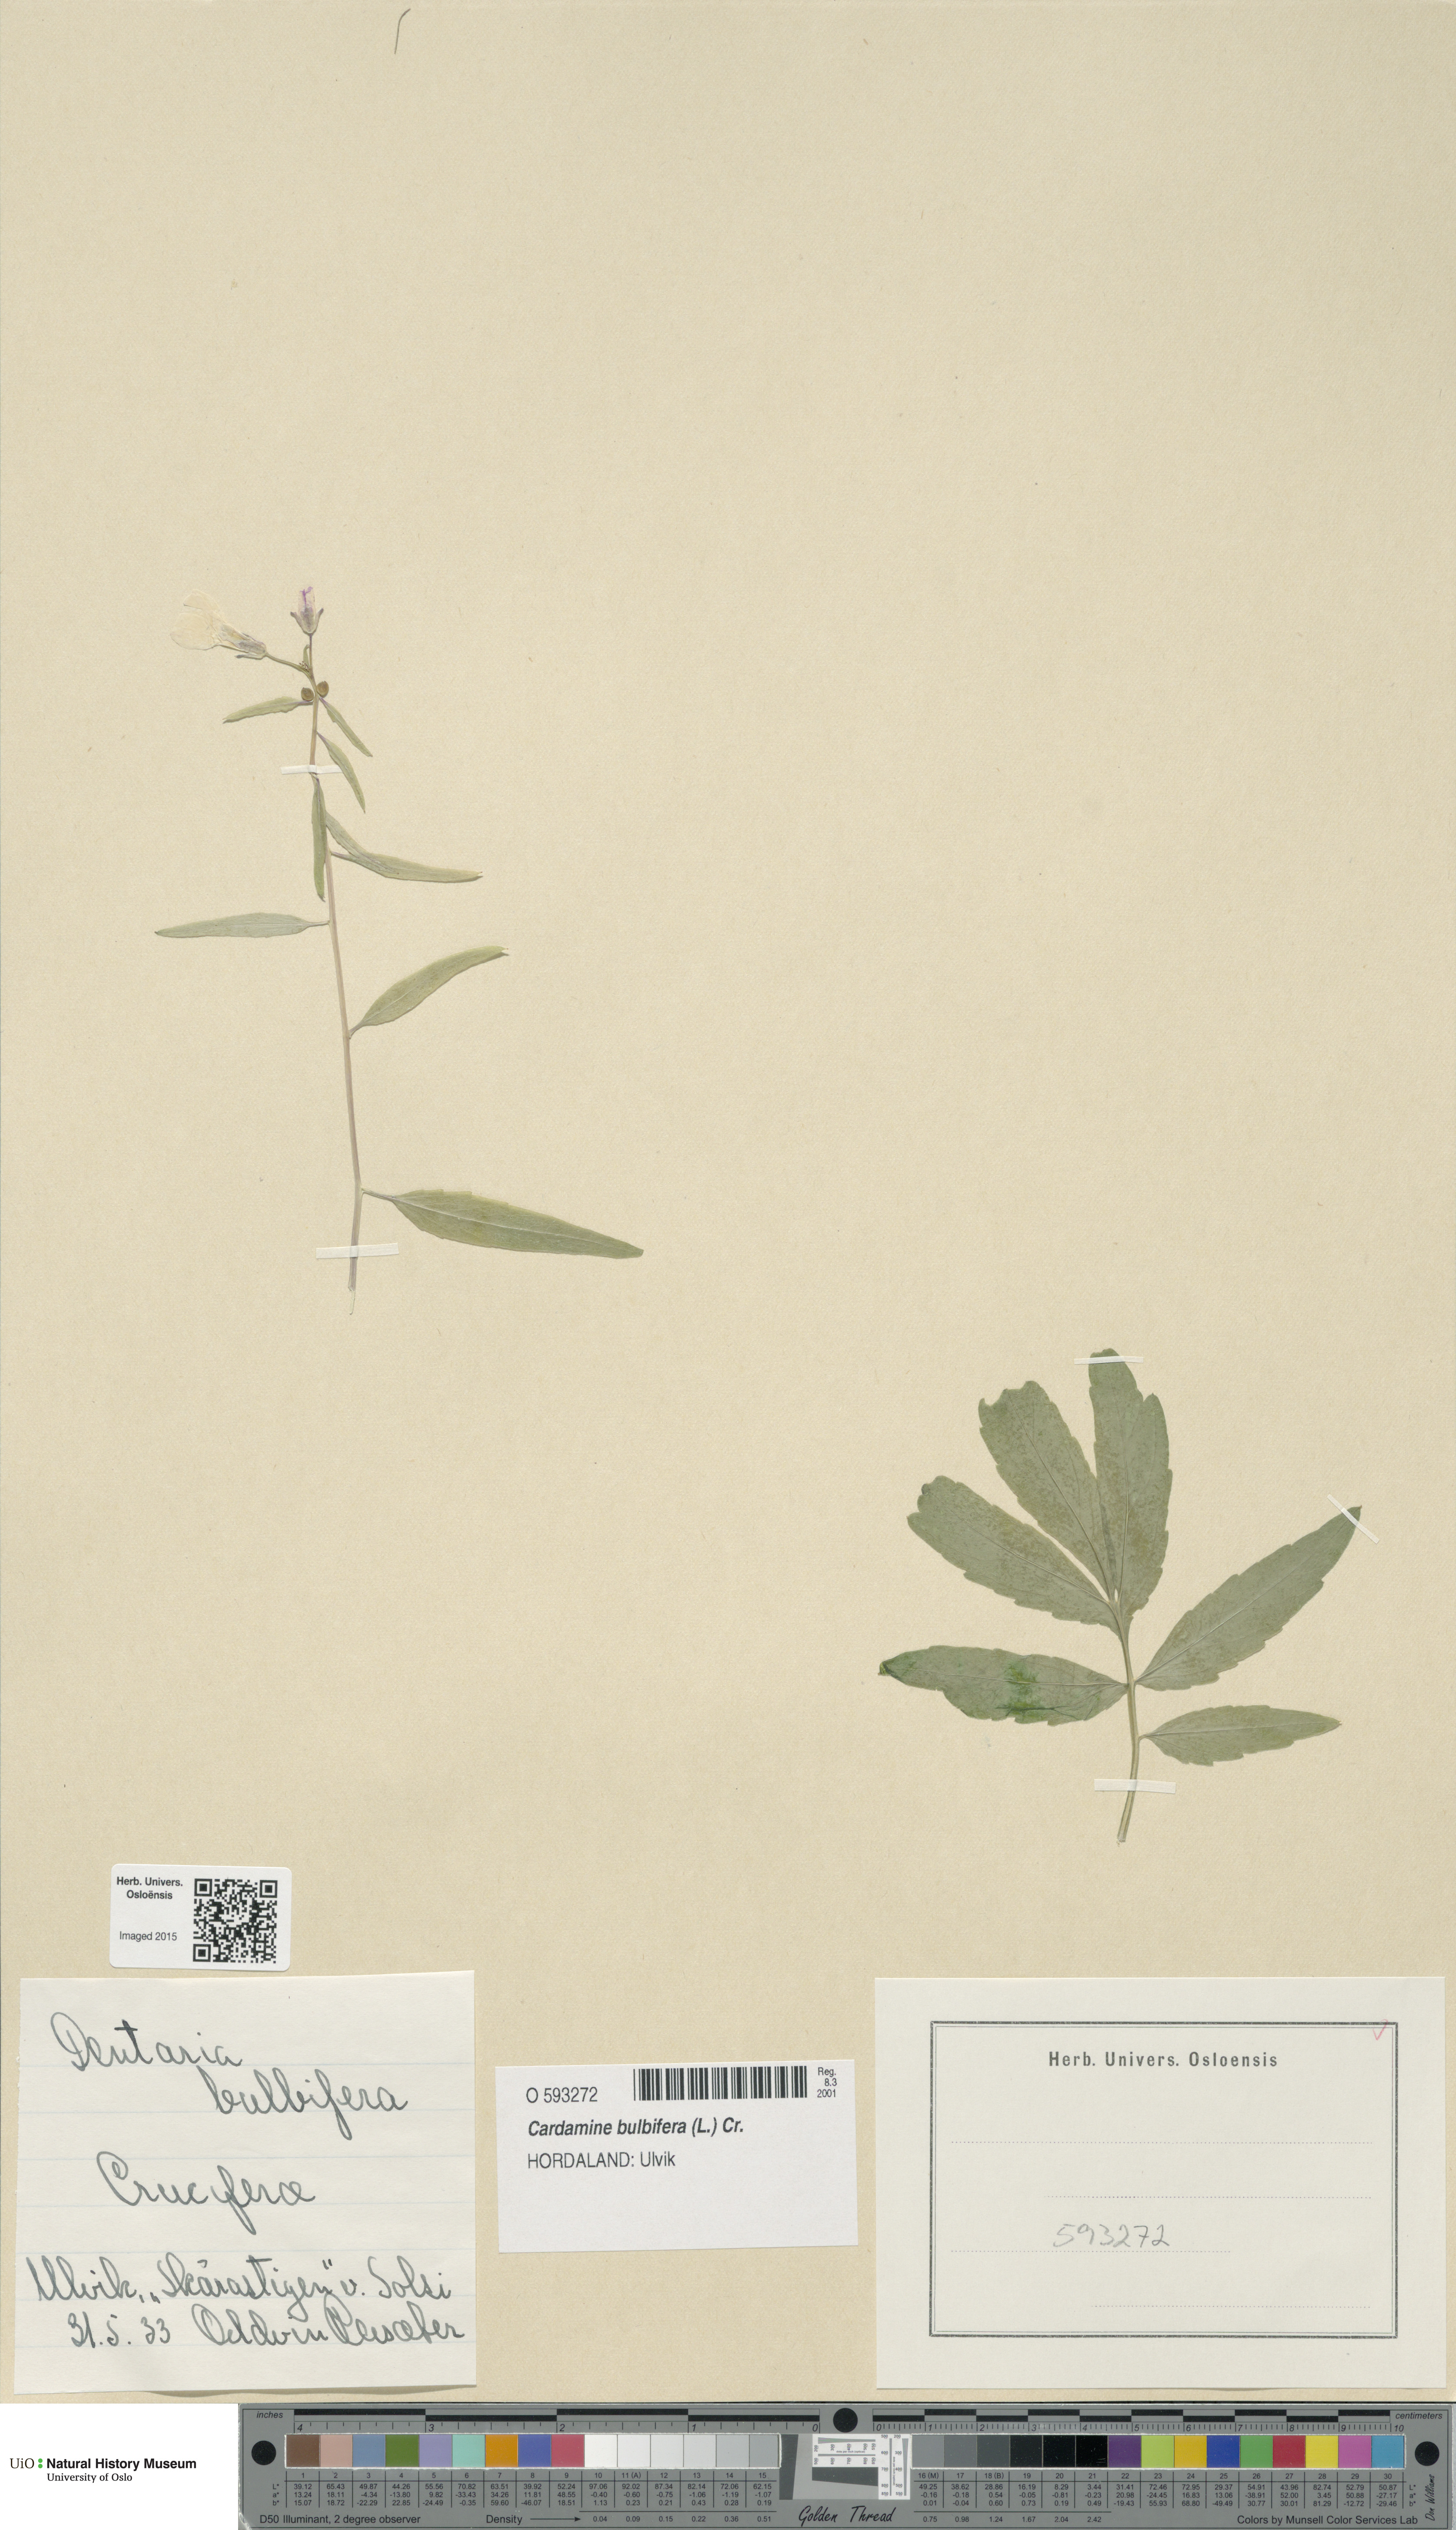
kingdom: Plantae
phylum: Tracheophyta
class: Magnoliopsida
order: Brassicales
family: Brassicaceae
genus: Cardamine
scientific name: Cardamine bulbifera
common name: Coralroot bittercress
